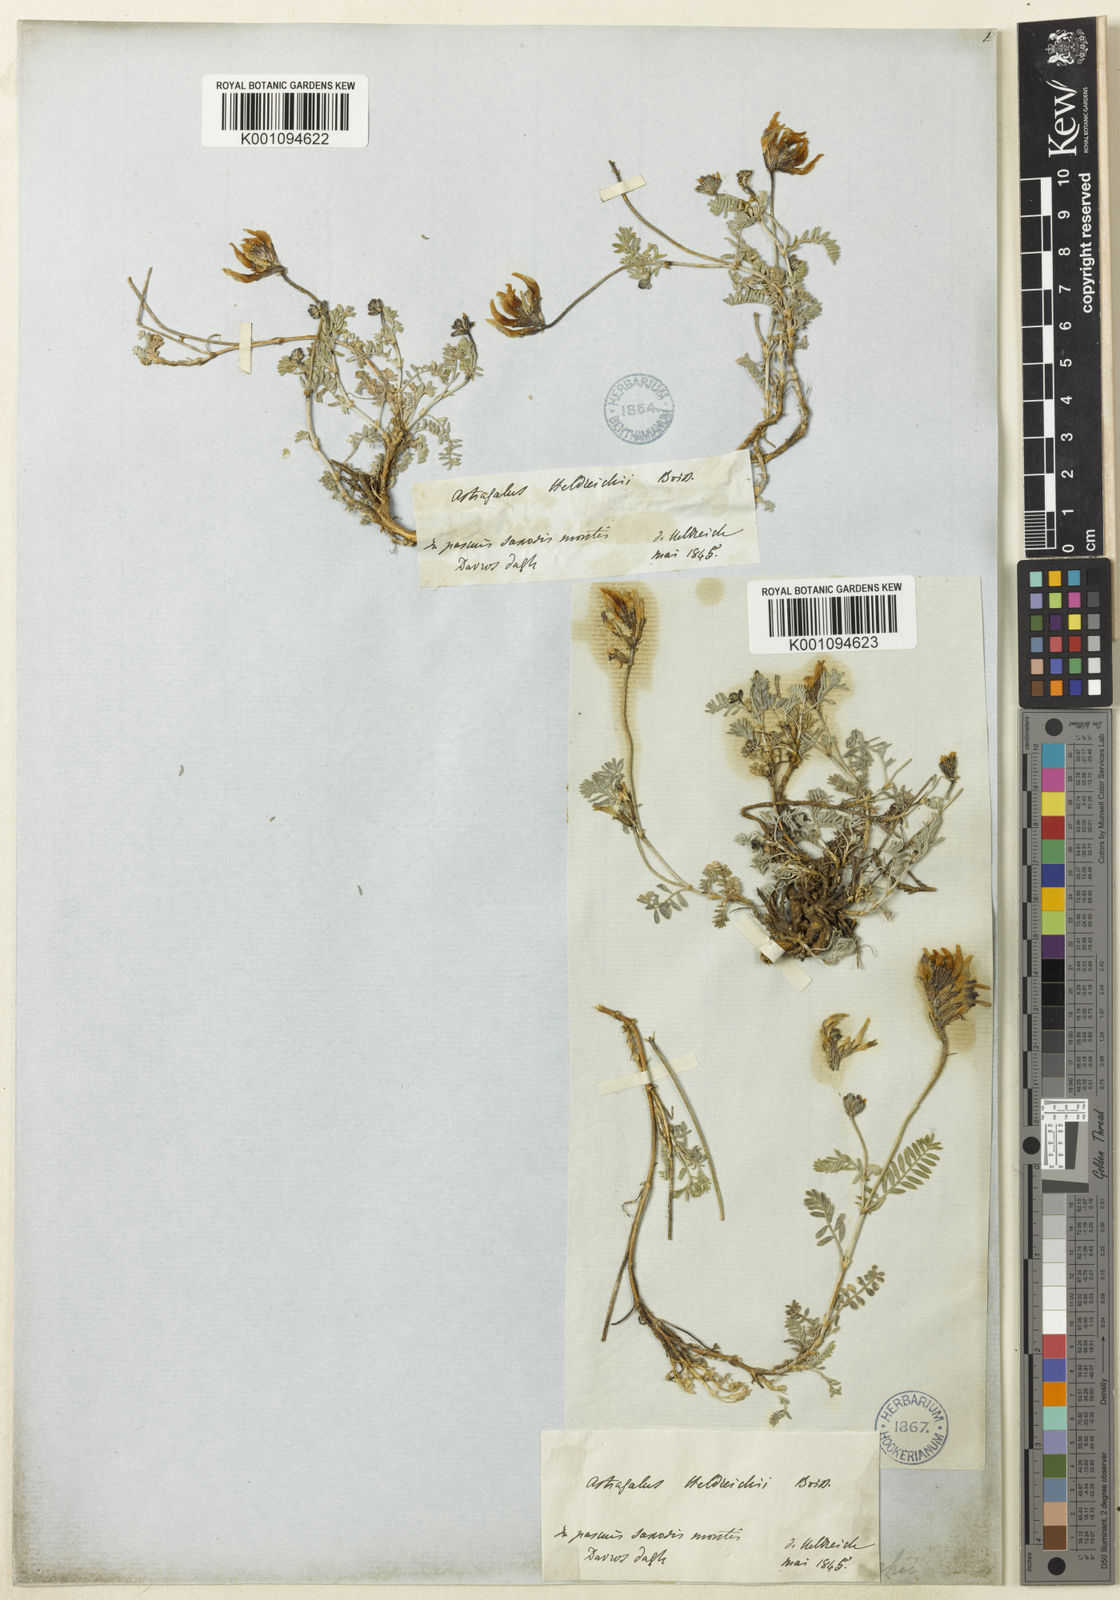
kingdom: Plantae
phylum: Tracheophyta
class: Magnoliopsida
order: Fabales
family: Fabaceae
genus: Astragalus
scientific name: Astragalus
